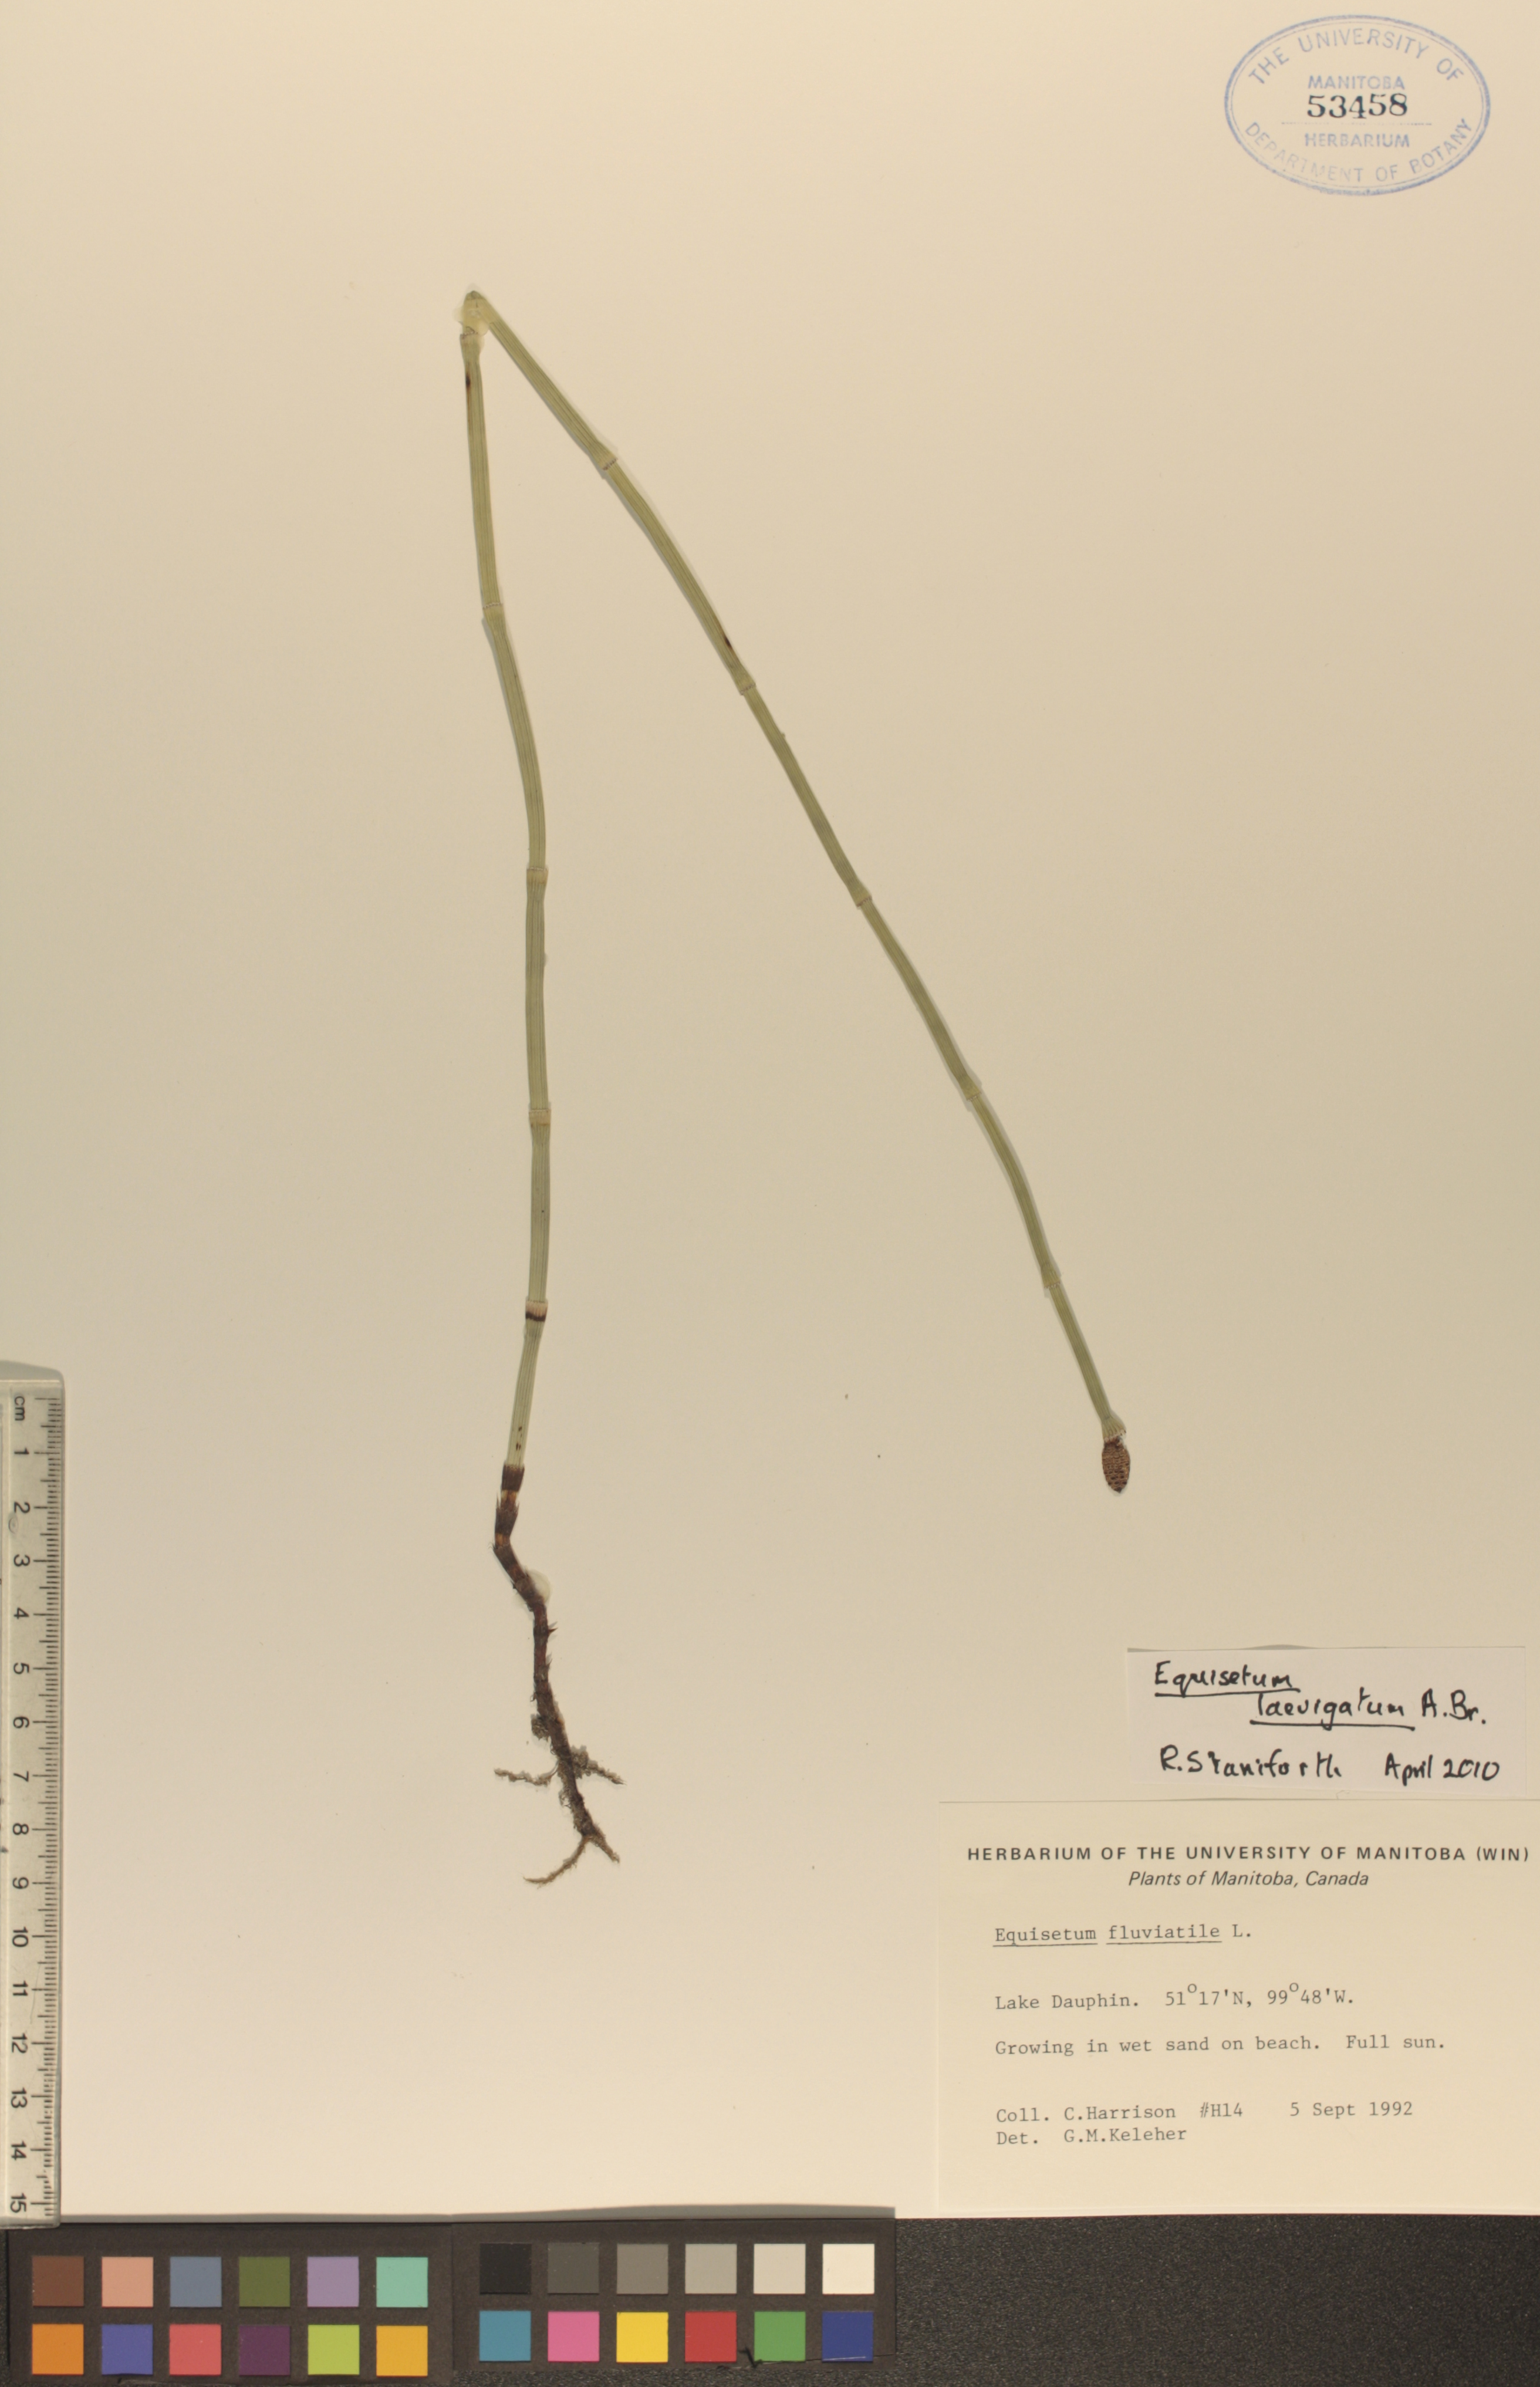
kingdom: Plantae
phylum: Tracheophyta
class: Polypodiopsida
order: Equisetales
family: Equisetaceae
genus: Equisetum
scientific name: Equisetum laevigatum
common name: Smooth scouring-rush
